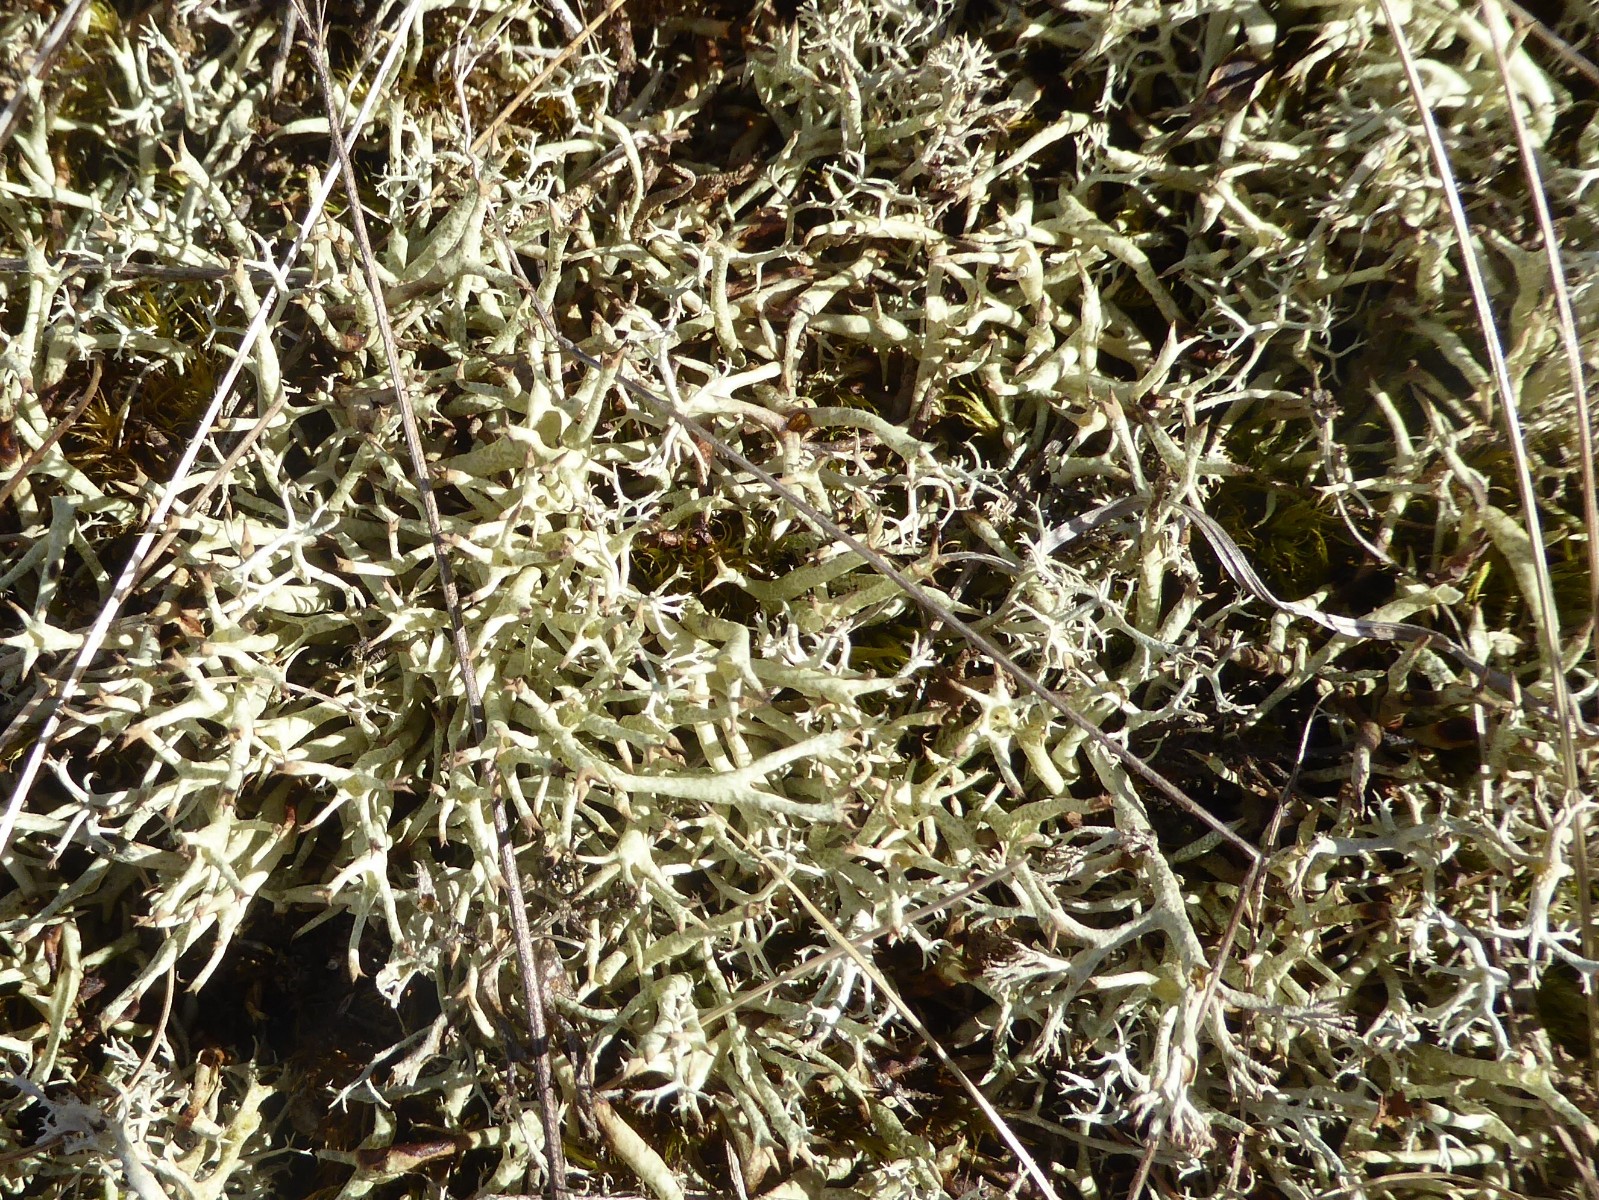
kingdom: Fungi
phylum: Ascomycota
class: Lecanoromycetes
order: Lecanorales
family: Cladoniaceae
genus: Cladonia
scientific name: Cladonia uncialis
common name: pigget bægerlav
